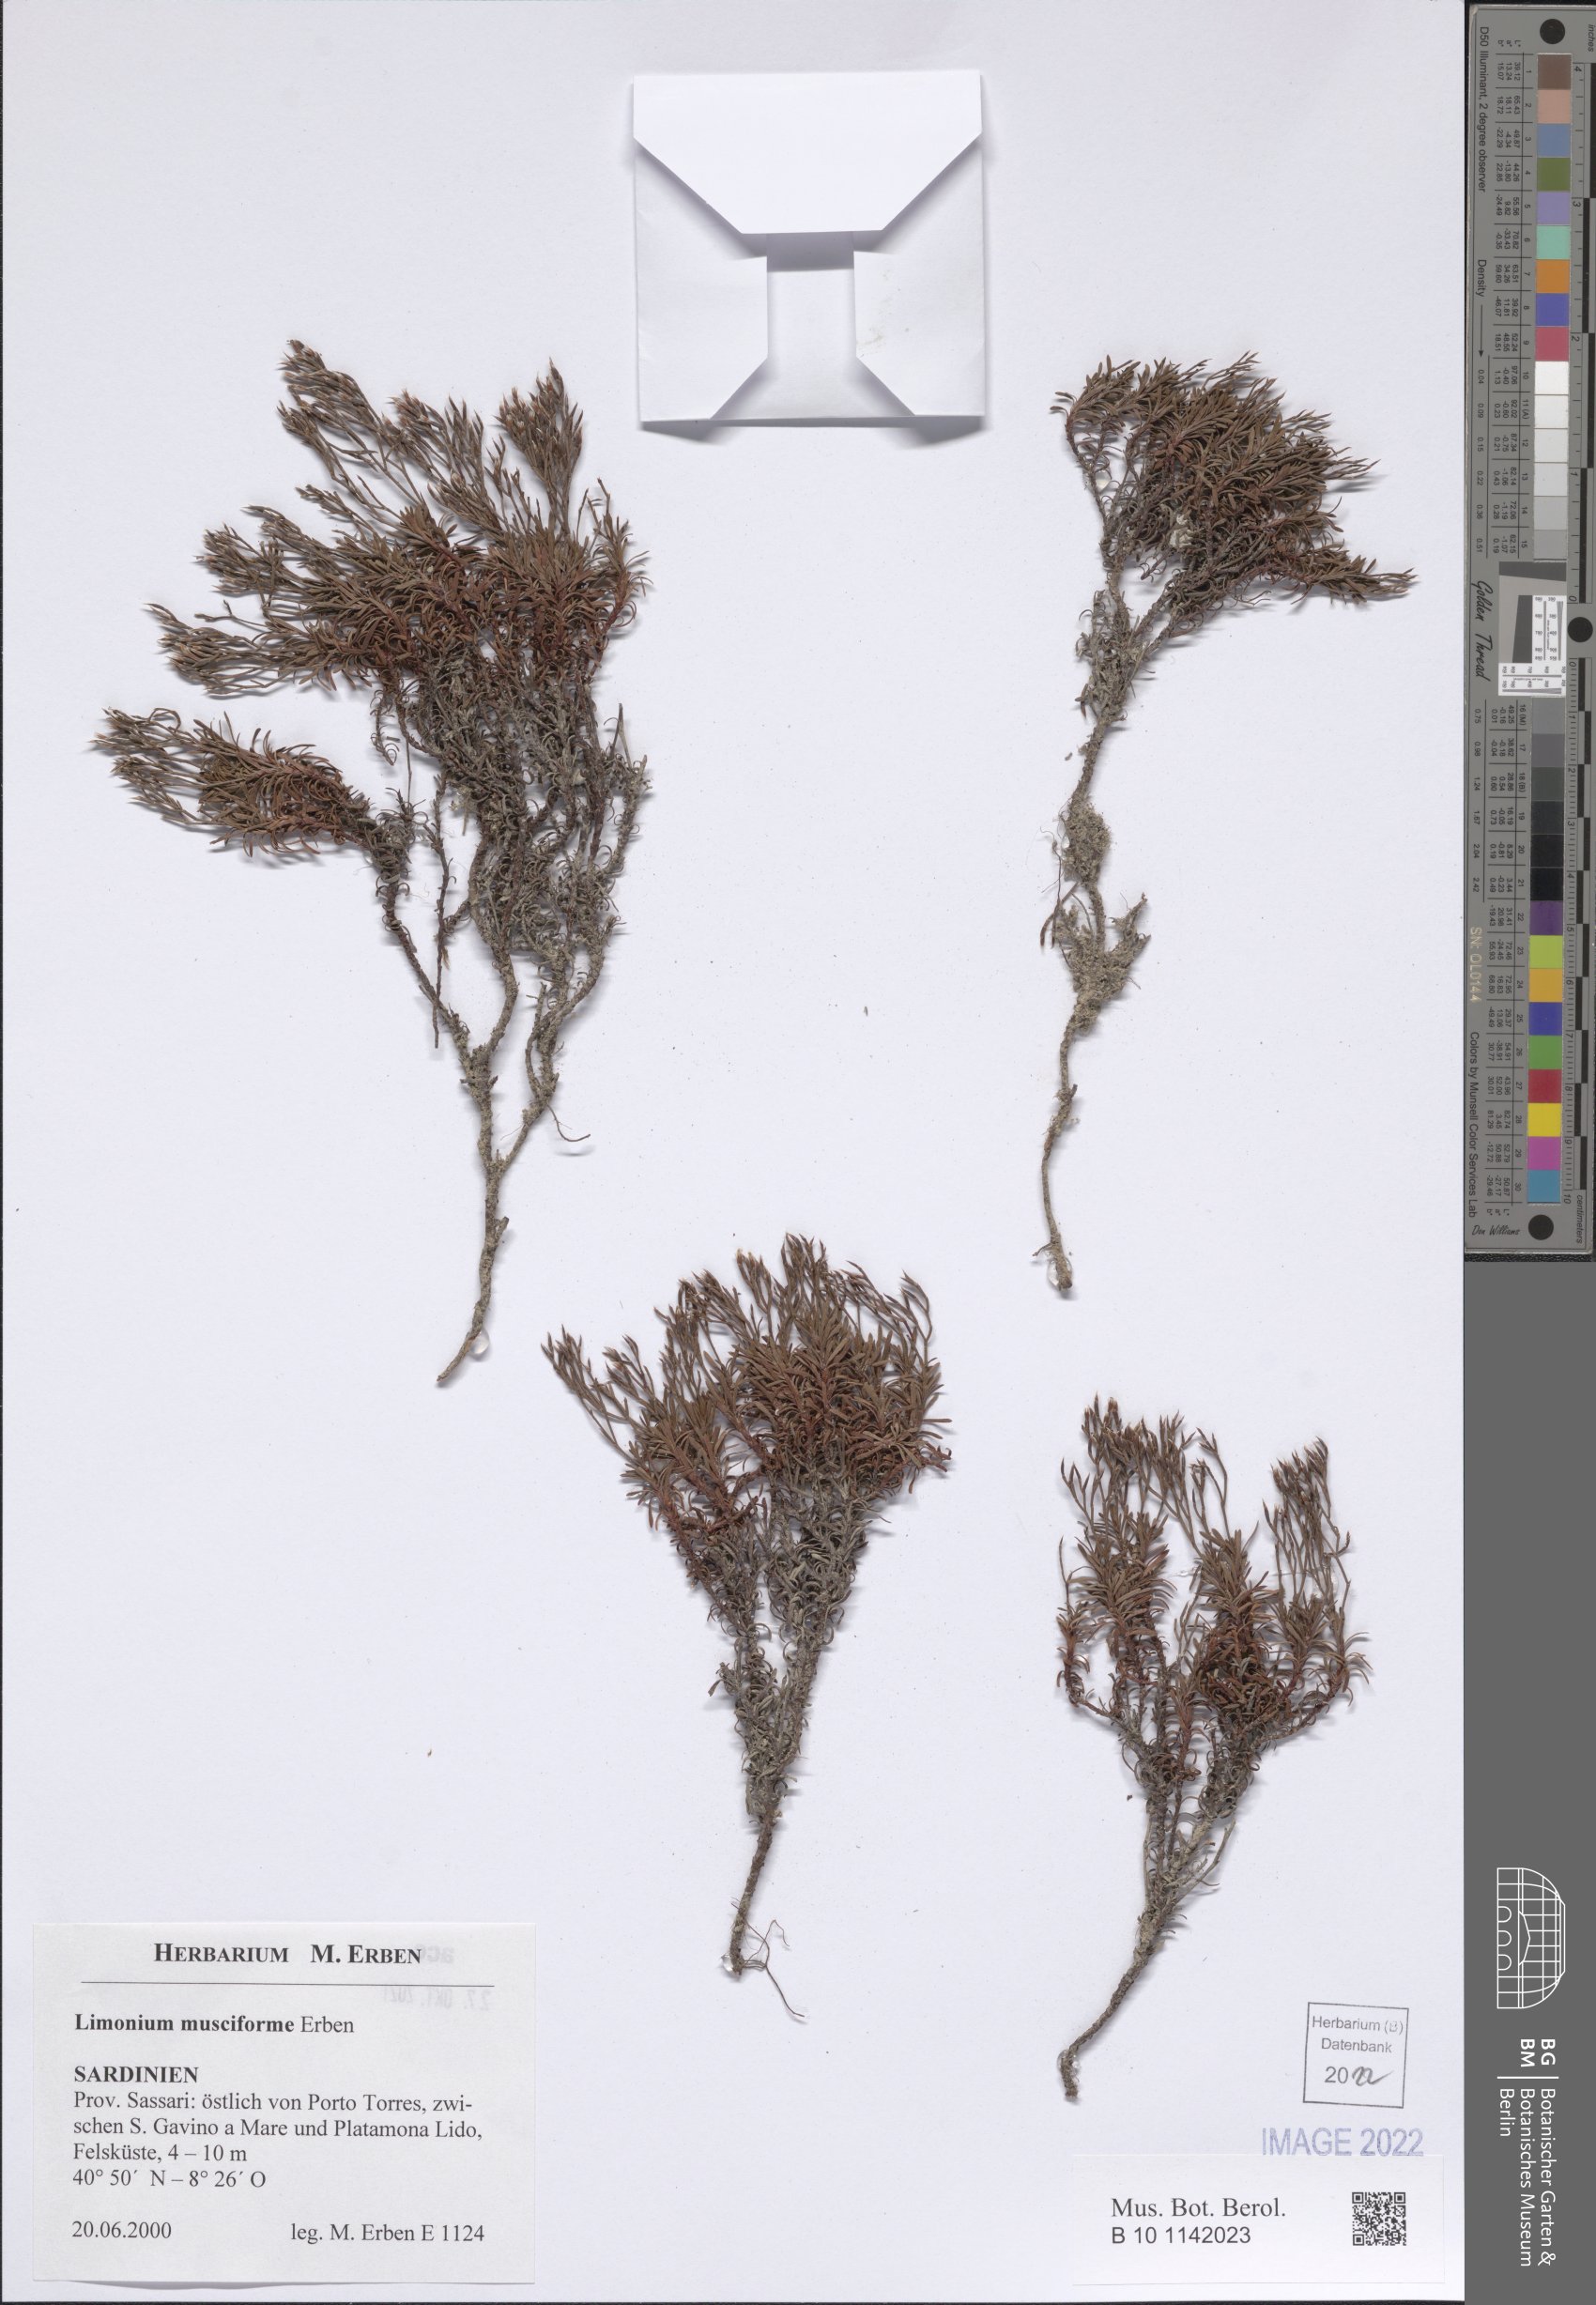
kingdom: Plantae
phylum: Tracheophyta
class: Magnoliopsida
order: Caryophyllales
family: Plumbaginaceae
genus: Limonium
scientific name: Limonium
